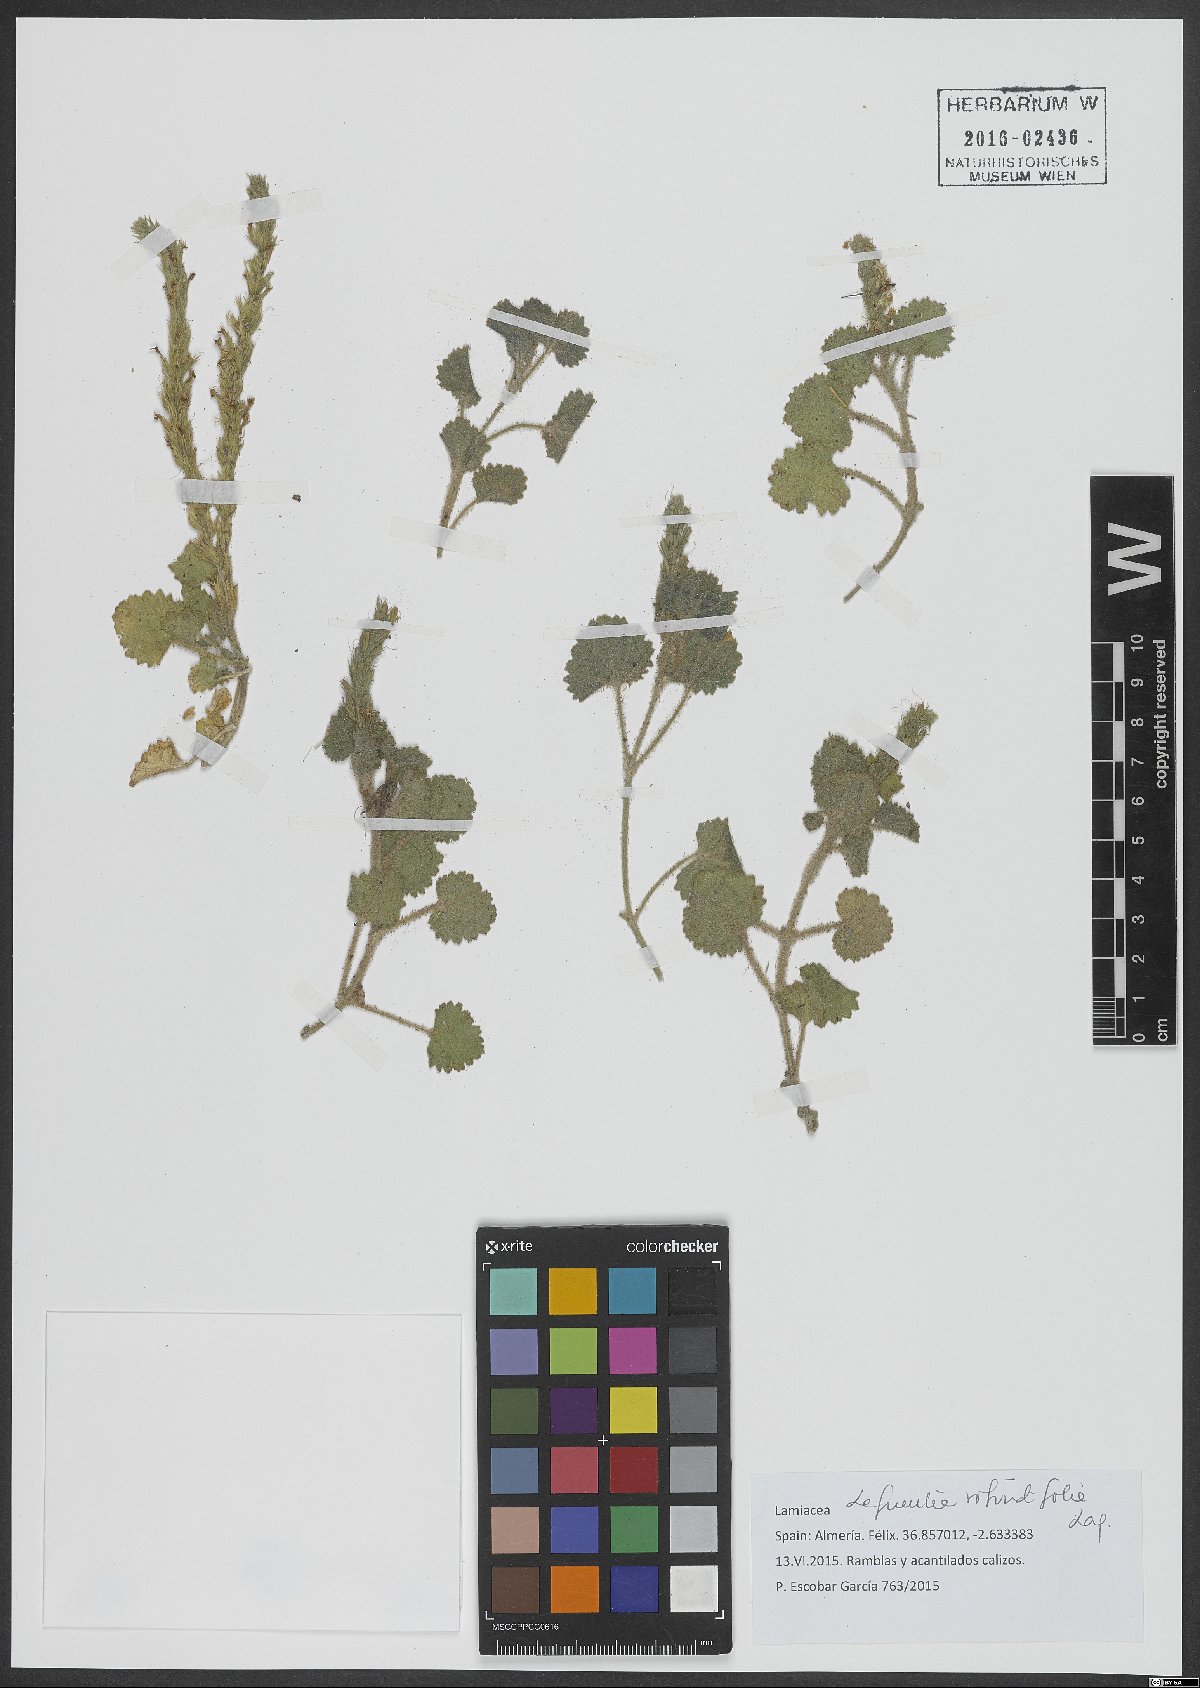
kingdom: Plantae
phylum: Tracheophyta
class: Magnoliopsida
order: Lamiales
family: Plantaginaceae
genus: Lafuentea
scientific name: Lafuentea rotundifolia
